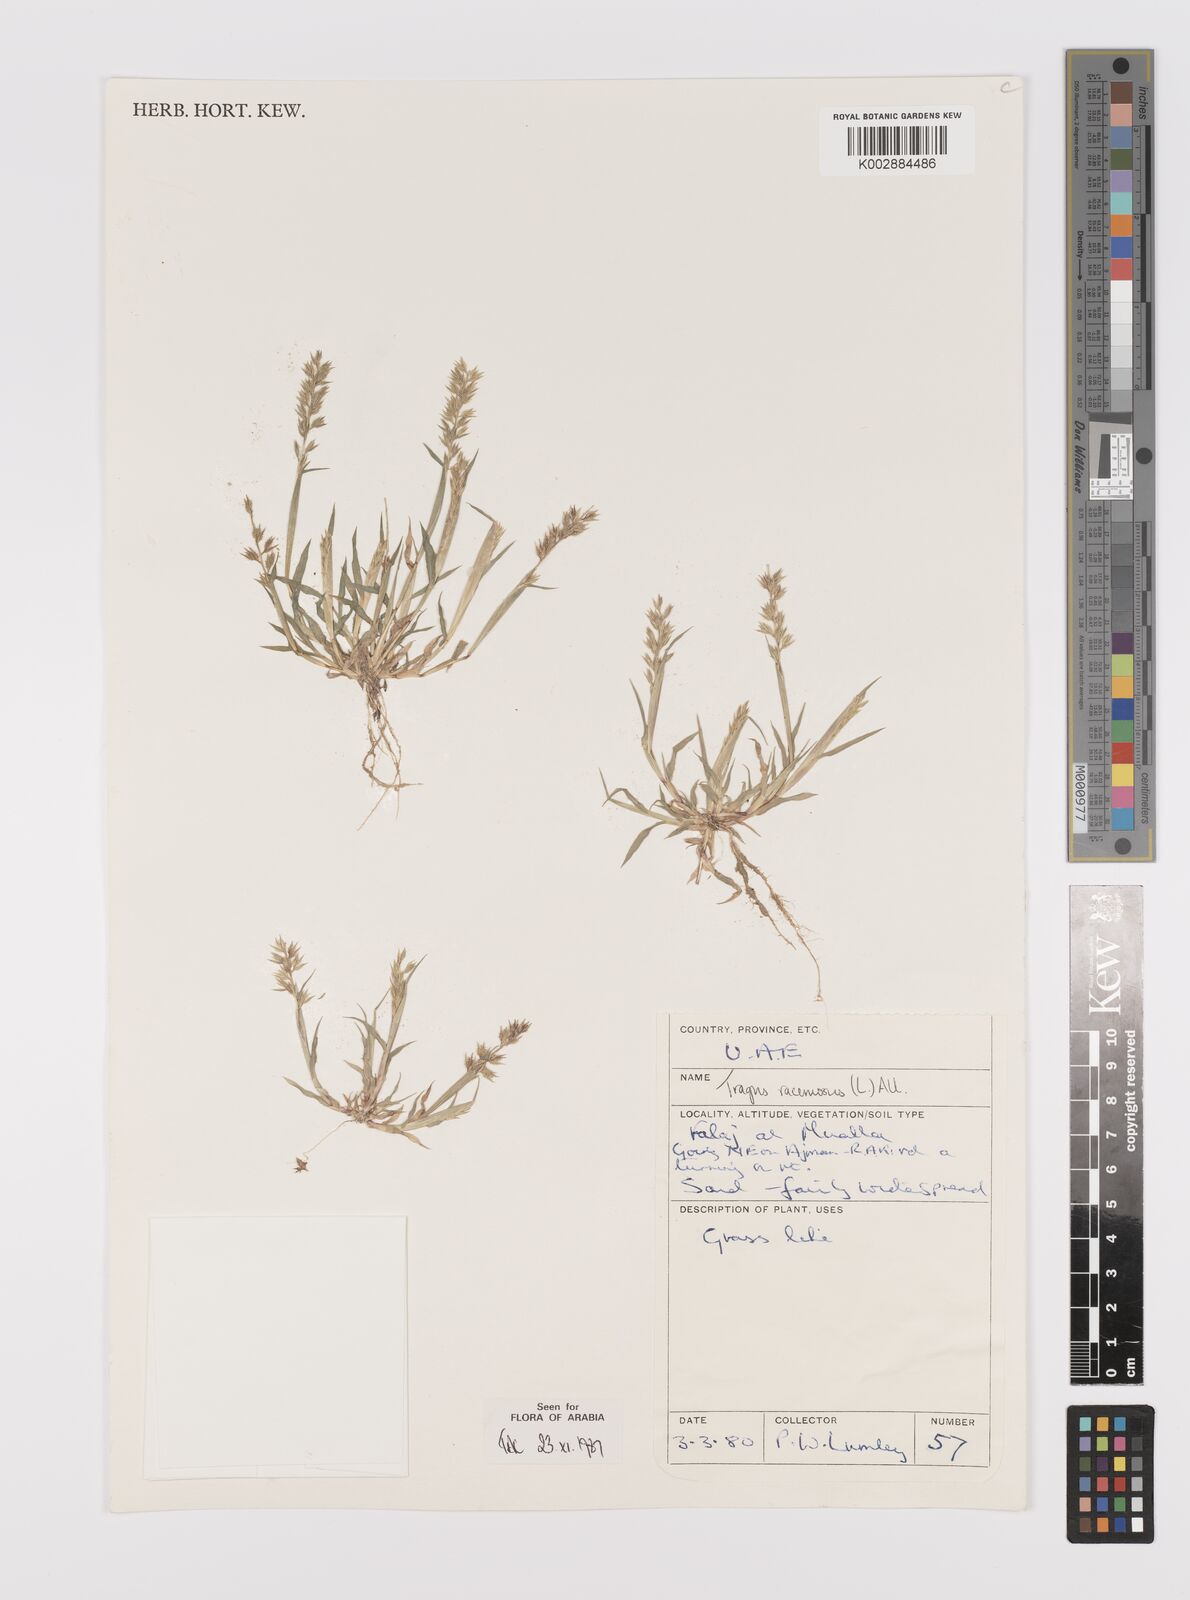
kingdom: Plantae
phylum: Tracheophyta
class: Liliopsida
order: Poales
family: Poaceae
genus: Tragus
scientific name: Tragus racemosus
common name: European bur-grass
